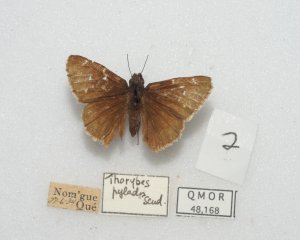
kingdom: Animalia
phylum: Arthropoda
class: Insecta
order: Lepidoptera
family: Hesperiidae
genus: Autochton
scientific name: Autochton
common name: Northern Cloudywing
